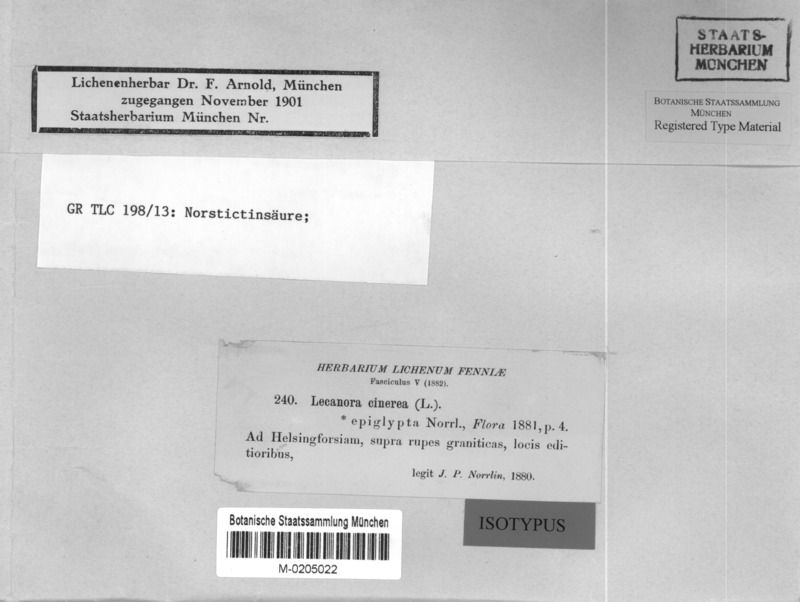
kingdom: Fungi
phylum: Ascomycota
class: Lecanoromycetes
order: Pertusariales
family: Megasporaceae
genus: Aspicilia
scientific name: Aspicilia epiglypta
